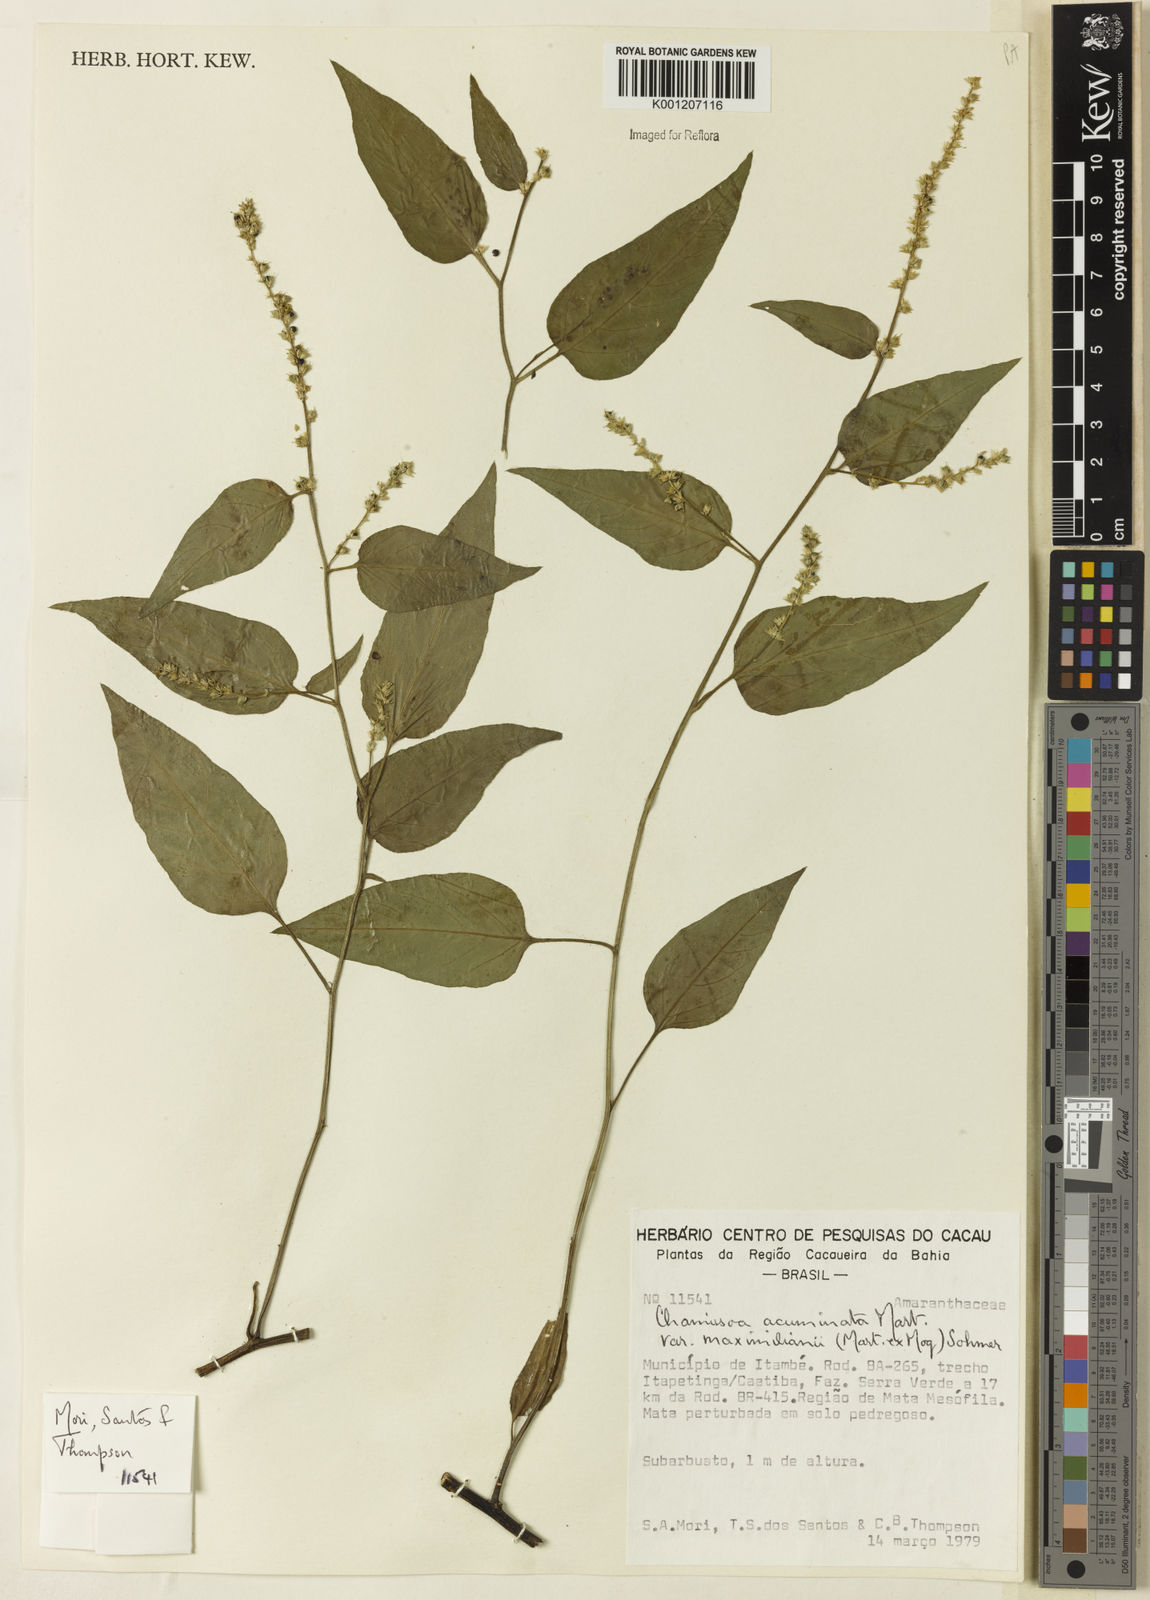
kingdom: Plantae
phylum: Tracheophyta
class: Magnoliopsida
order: Caryophyllales
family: Amaranthaceae
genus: Chamissoa
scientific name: Chamissoa maximiliani
